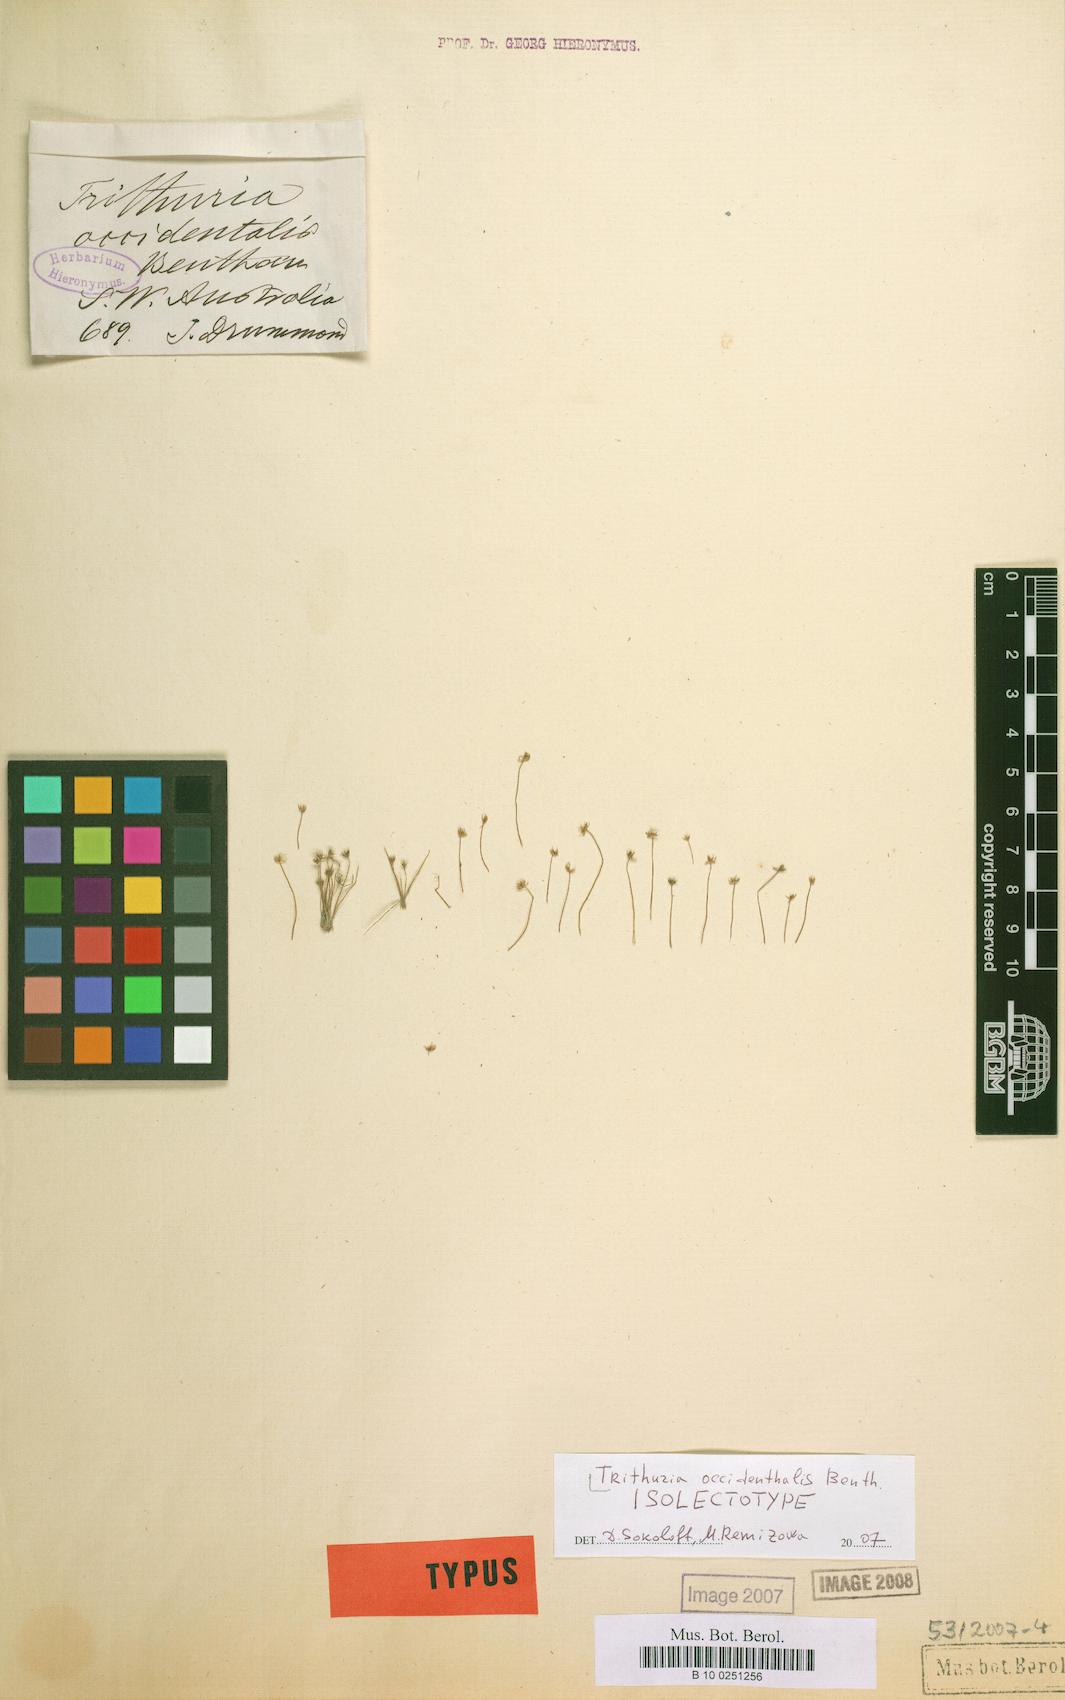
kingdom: Plantae
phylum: Tracheophyta
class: Magnoliopsida
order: Nymphaeales
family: Hydatellaceae
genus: Trithuria
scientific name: Trithuria occidentalis
